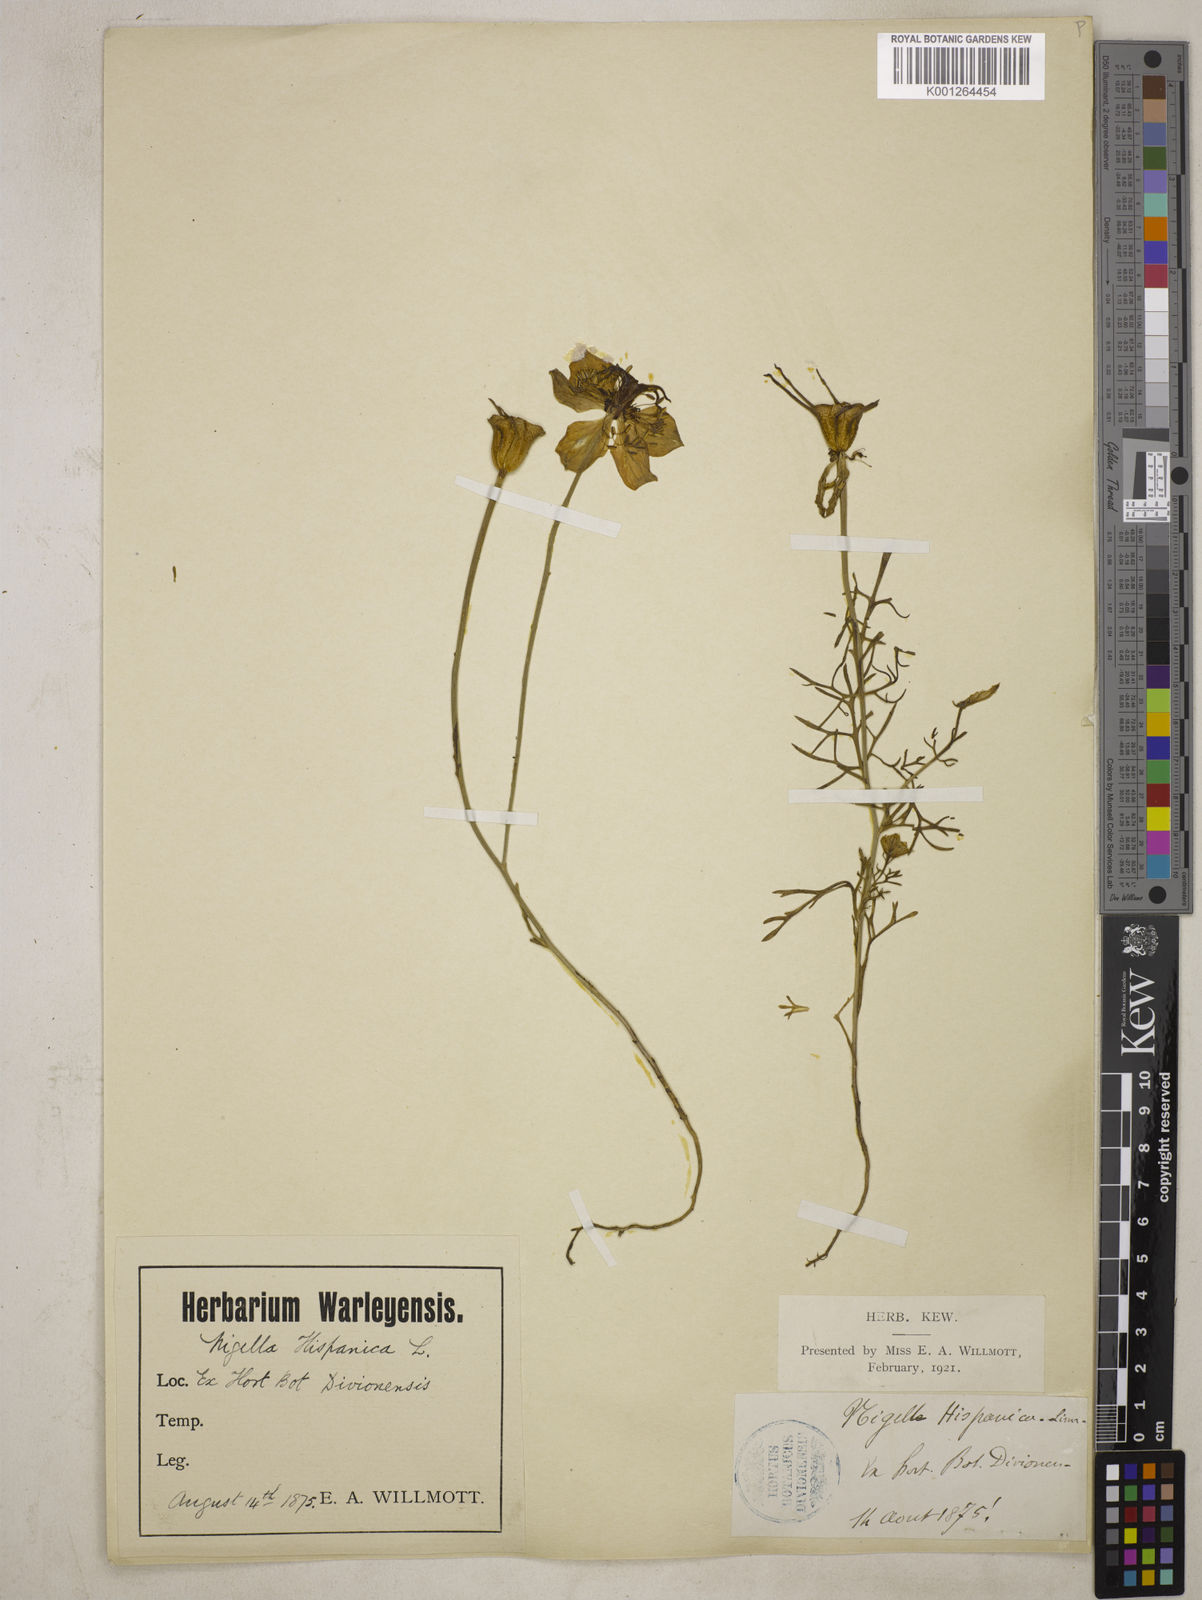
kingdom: Plantae
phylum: Tracheophyta
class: Magnoliopsida
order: Ranunculales
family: Ranunculaceae
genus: Nigella
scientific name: Nigella hispanica
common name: Fennel-flower
